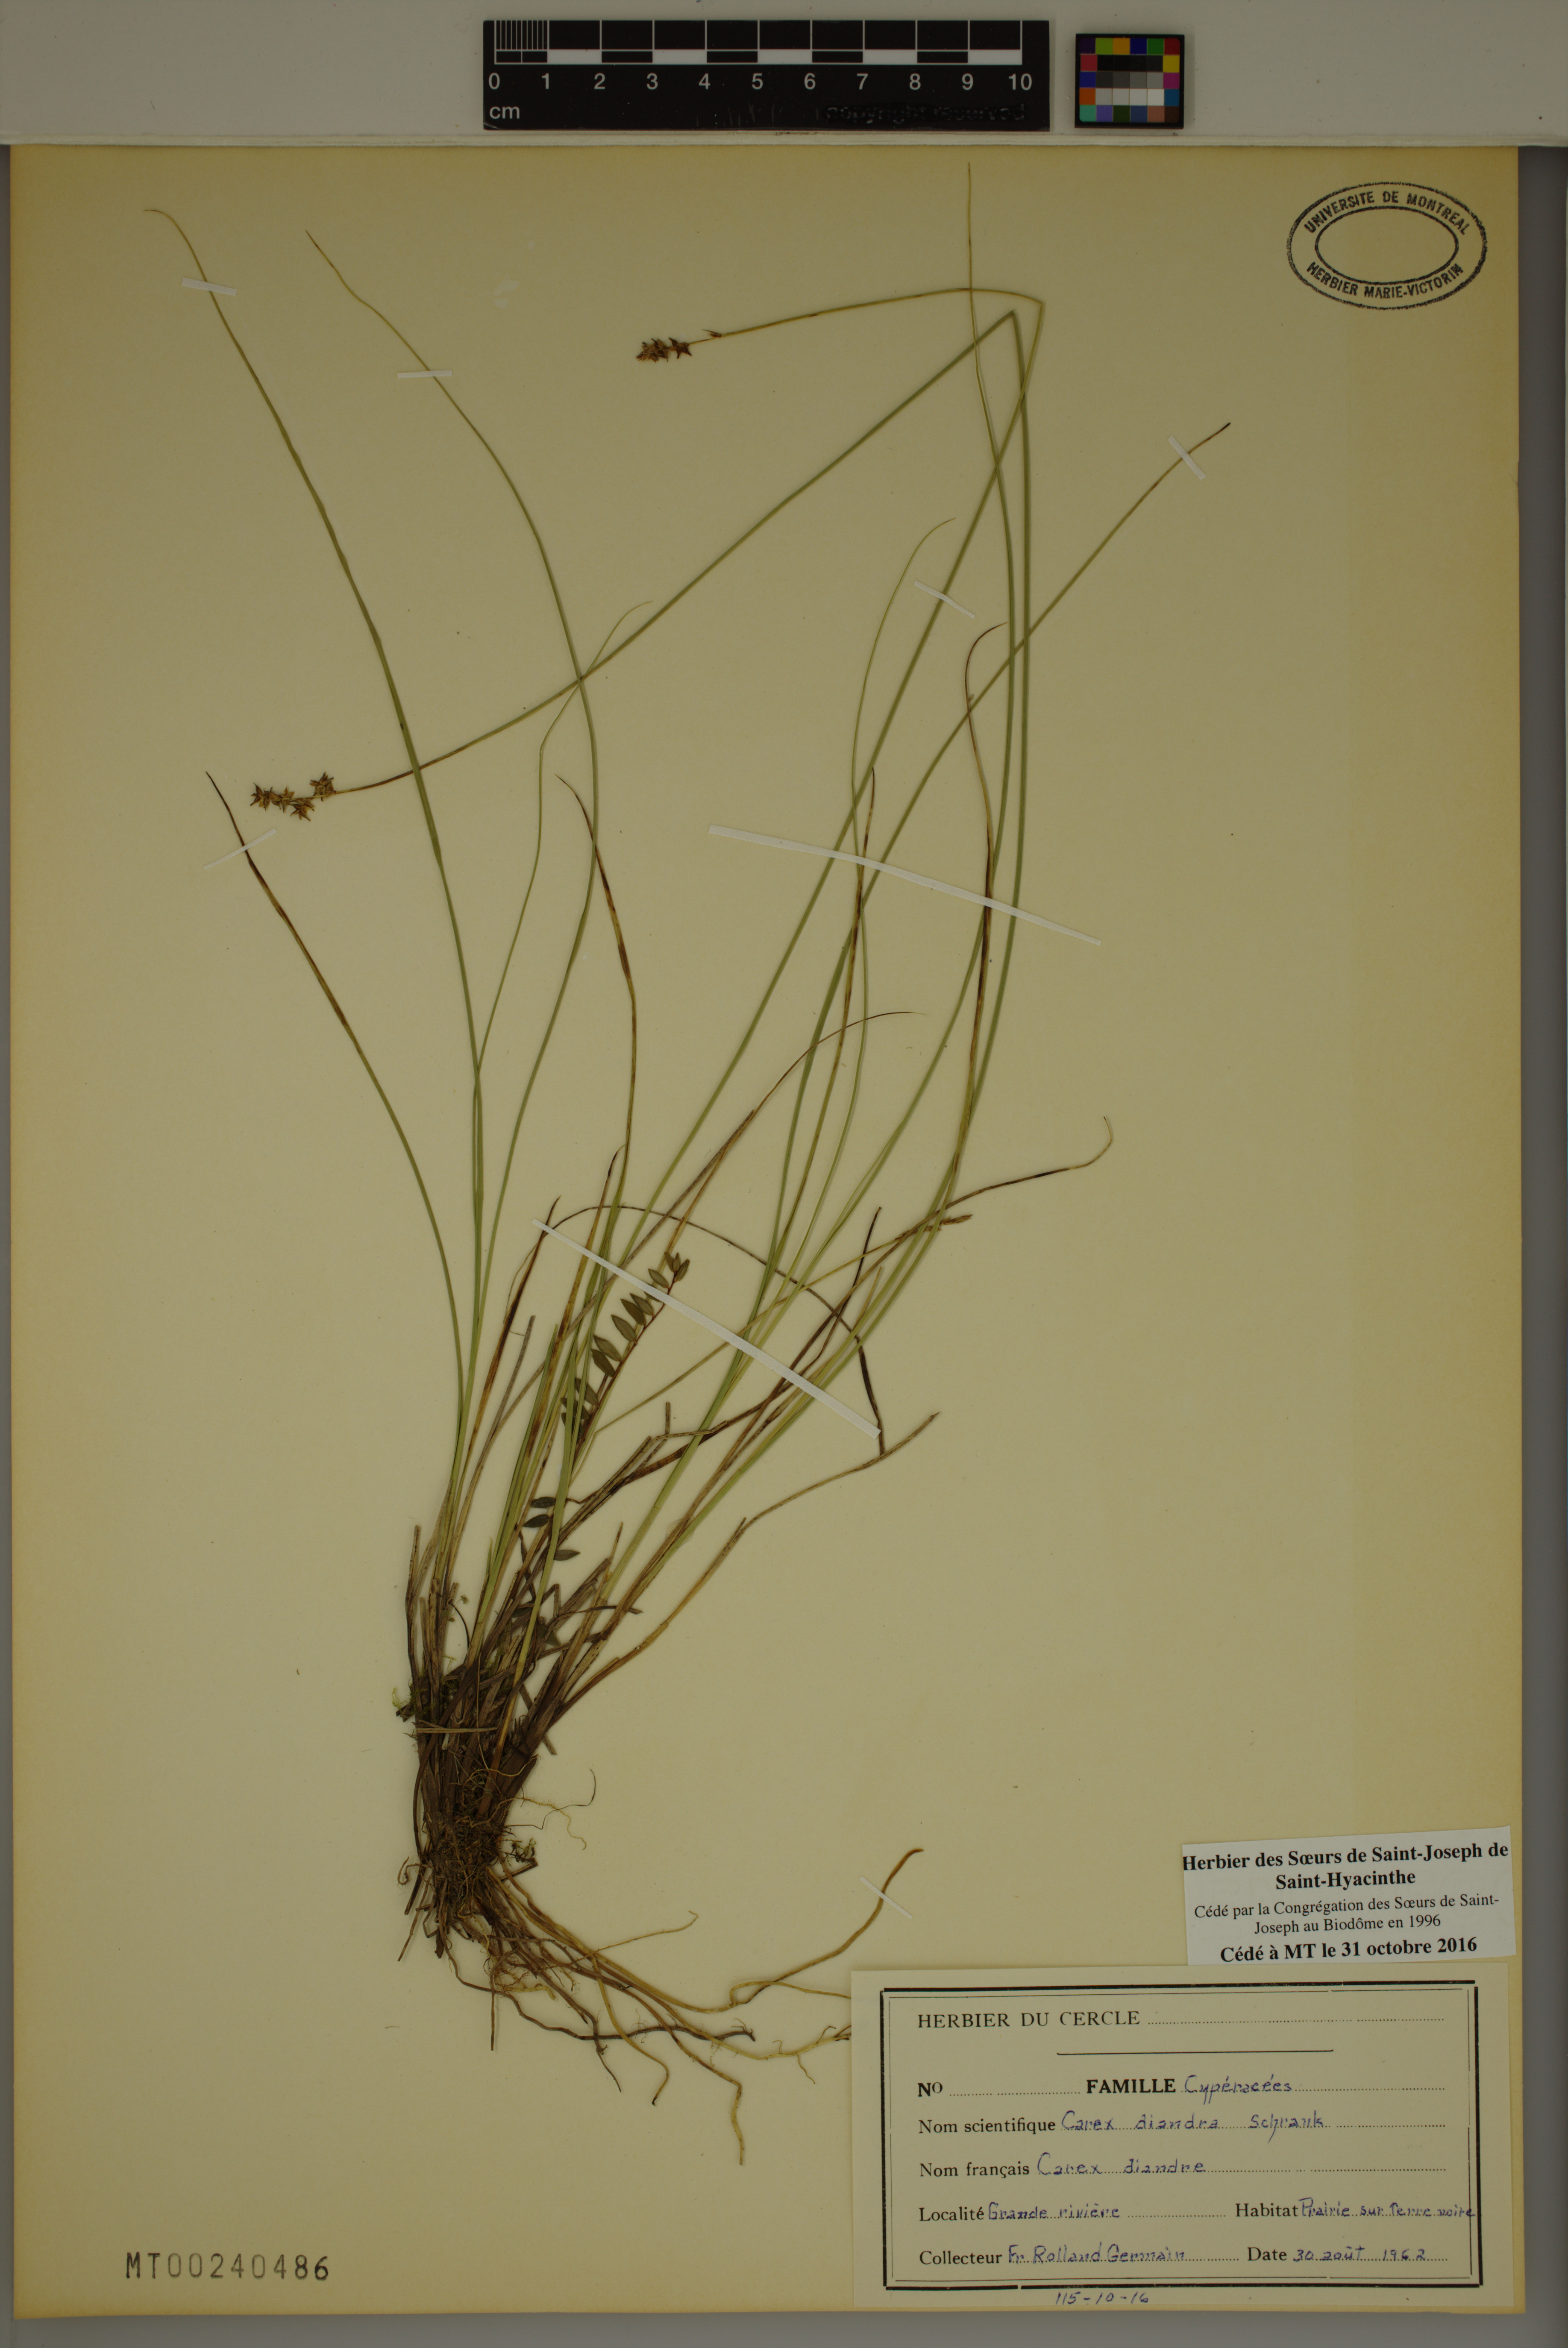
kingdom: Plantae
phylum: Tracheophyta
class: Liliopsida
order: Poales
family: Cyperaceae
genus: Carex
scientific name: Carex diandra
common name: Lesser tussock-sedge
